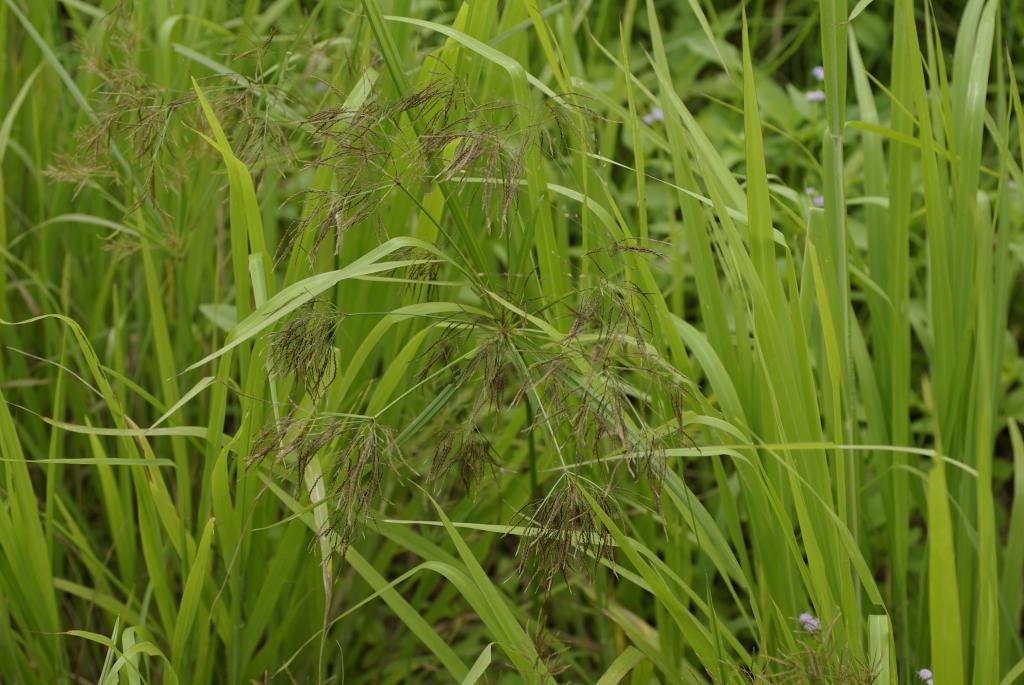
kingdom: Plantae
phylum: Tracheophyta
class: Liliopsida
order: Poales
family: Cyperaceae
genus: Cyperus
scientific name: Cyperus distans
